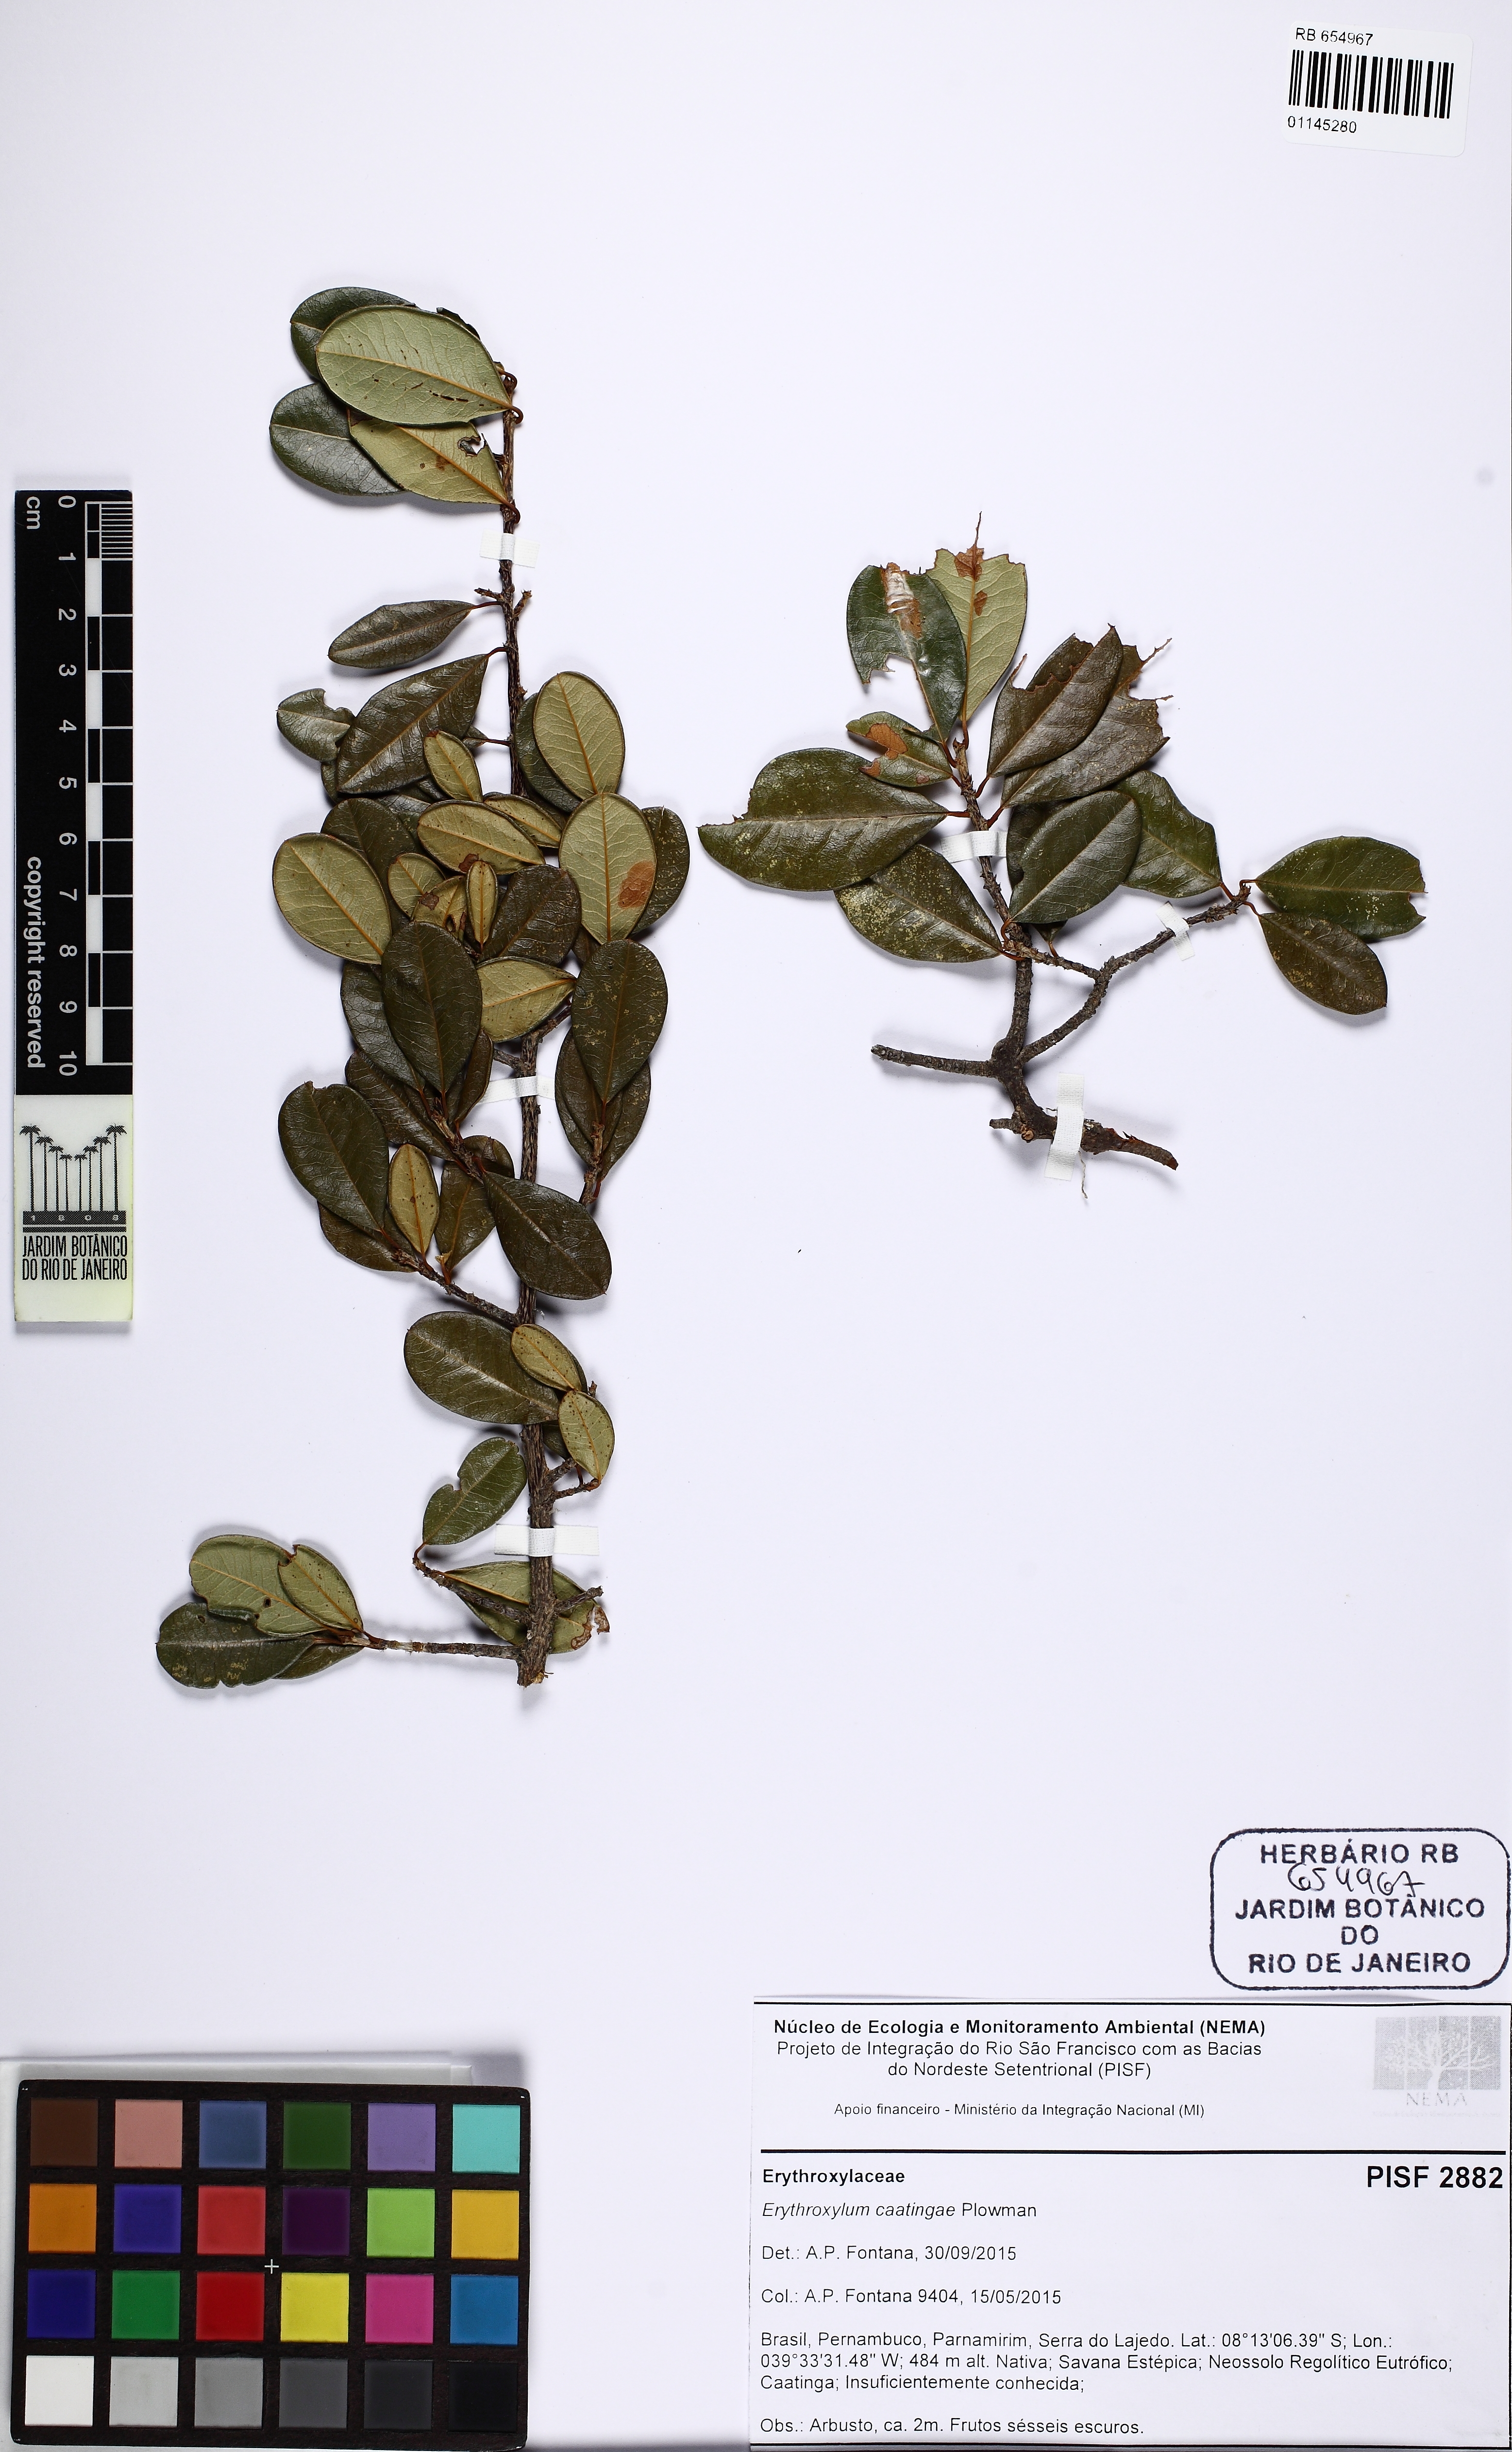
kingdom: Plantae
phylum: Tracheophyta
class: Magnoliopsida
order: Malpighiales
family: Erythroxylaceae
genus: Erythroxylum
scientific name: Erythroxylum caatingae
